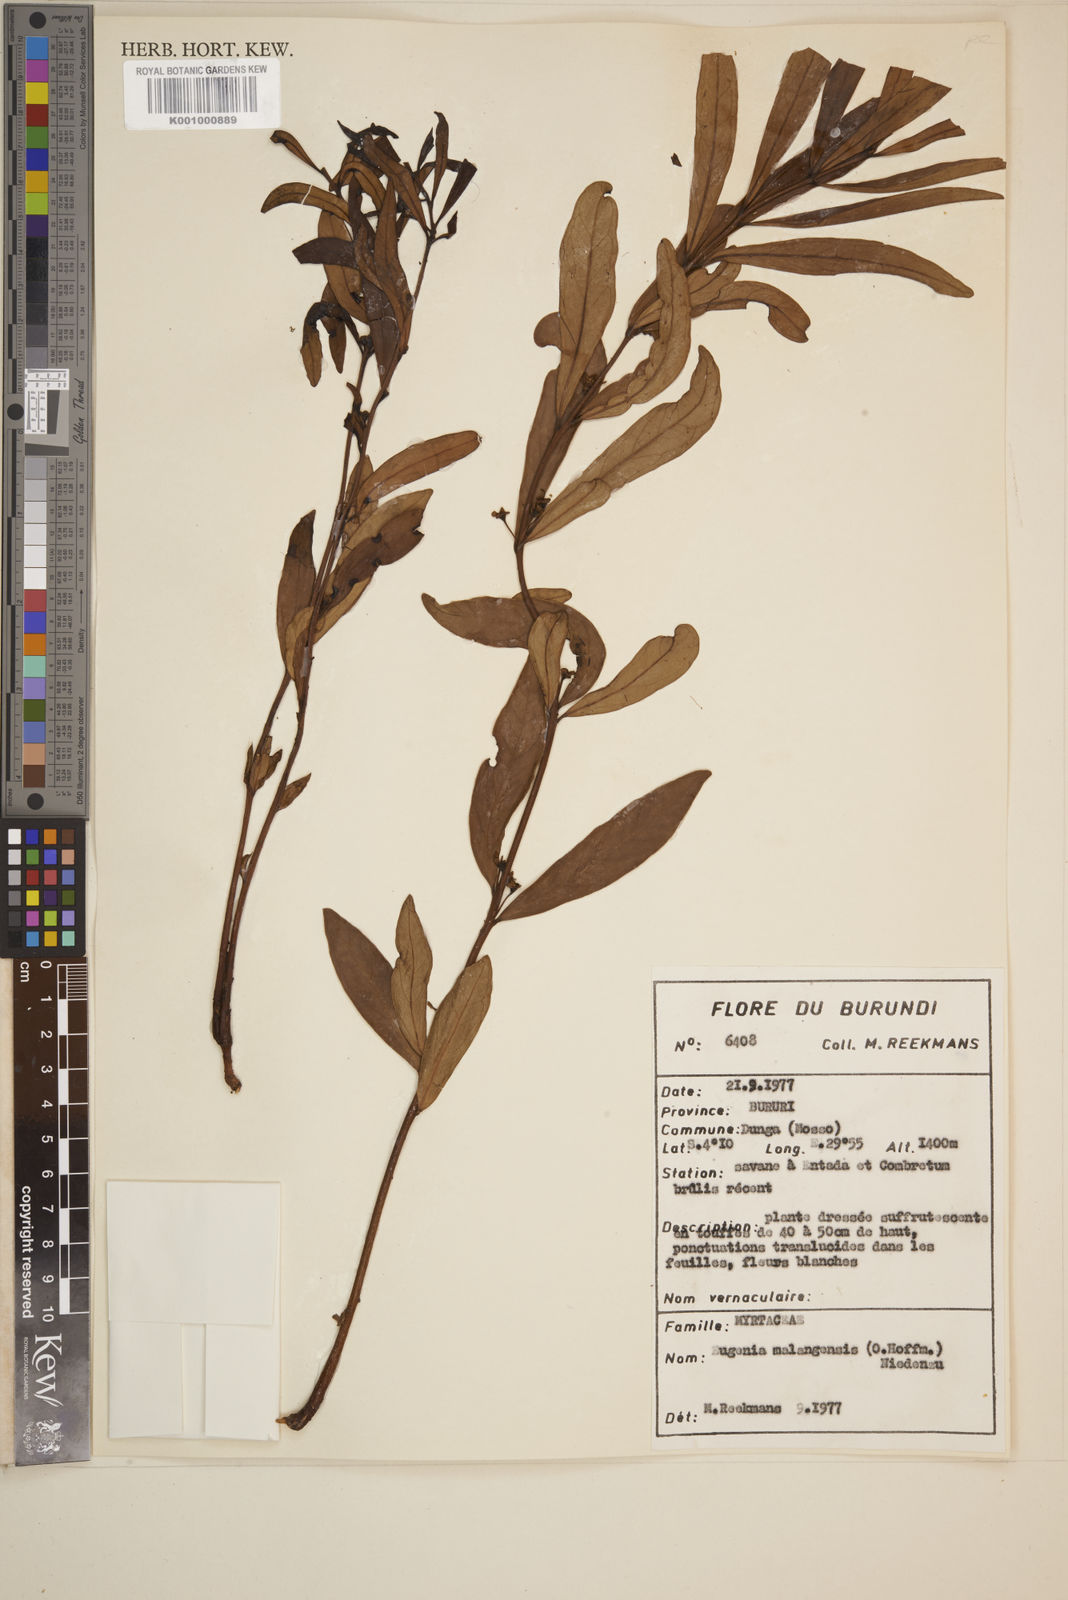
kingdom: Plantae
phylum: Tracheophyta
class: Magnoliopsida
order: Myrtales
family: Myrtaceae
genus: Eugenia
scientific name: Eugenia malangensis
